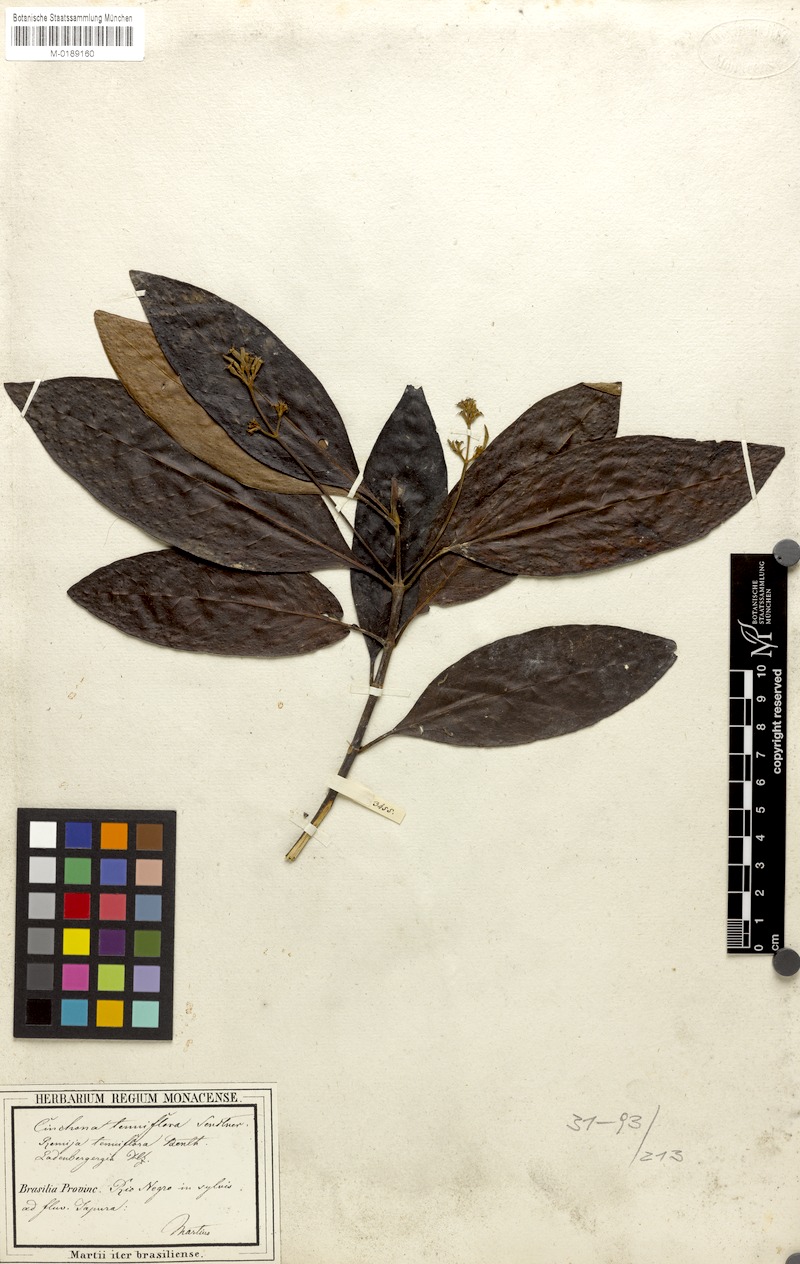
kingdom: Plantae
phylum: Tracheophyta
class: Magnoliopsida
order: Gentianales
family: Rubiaceae
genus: Remijia
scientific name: Remijia tenuiflora
